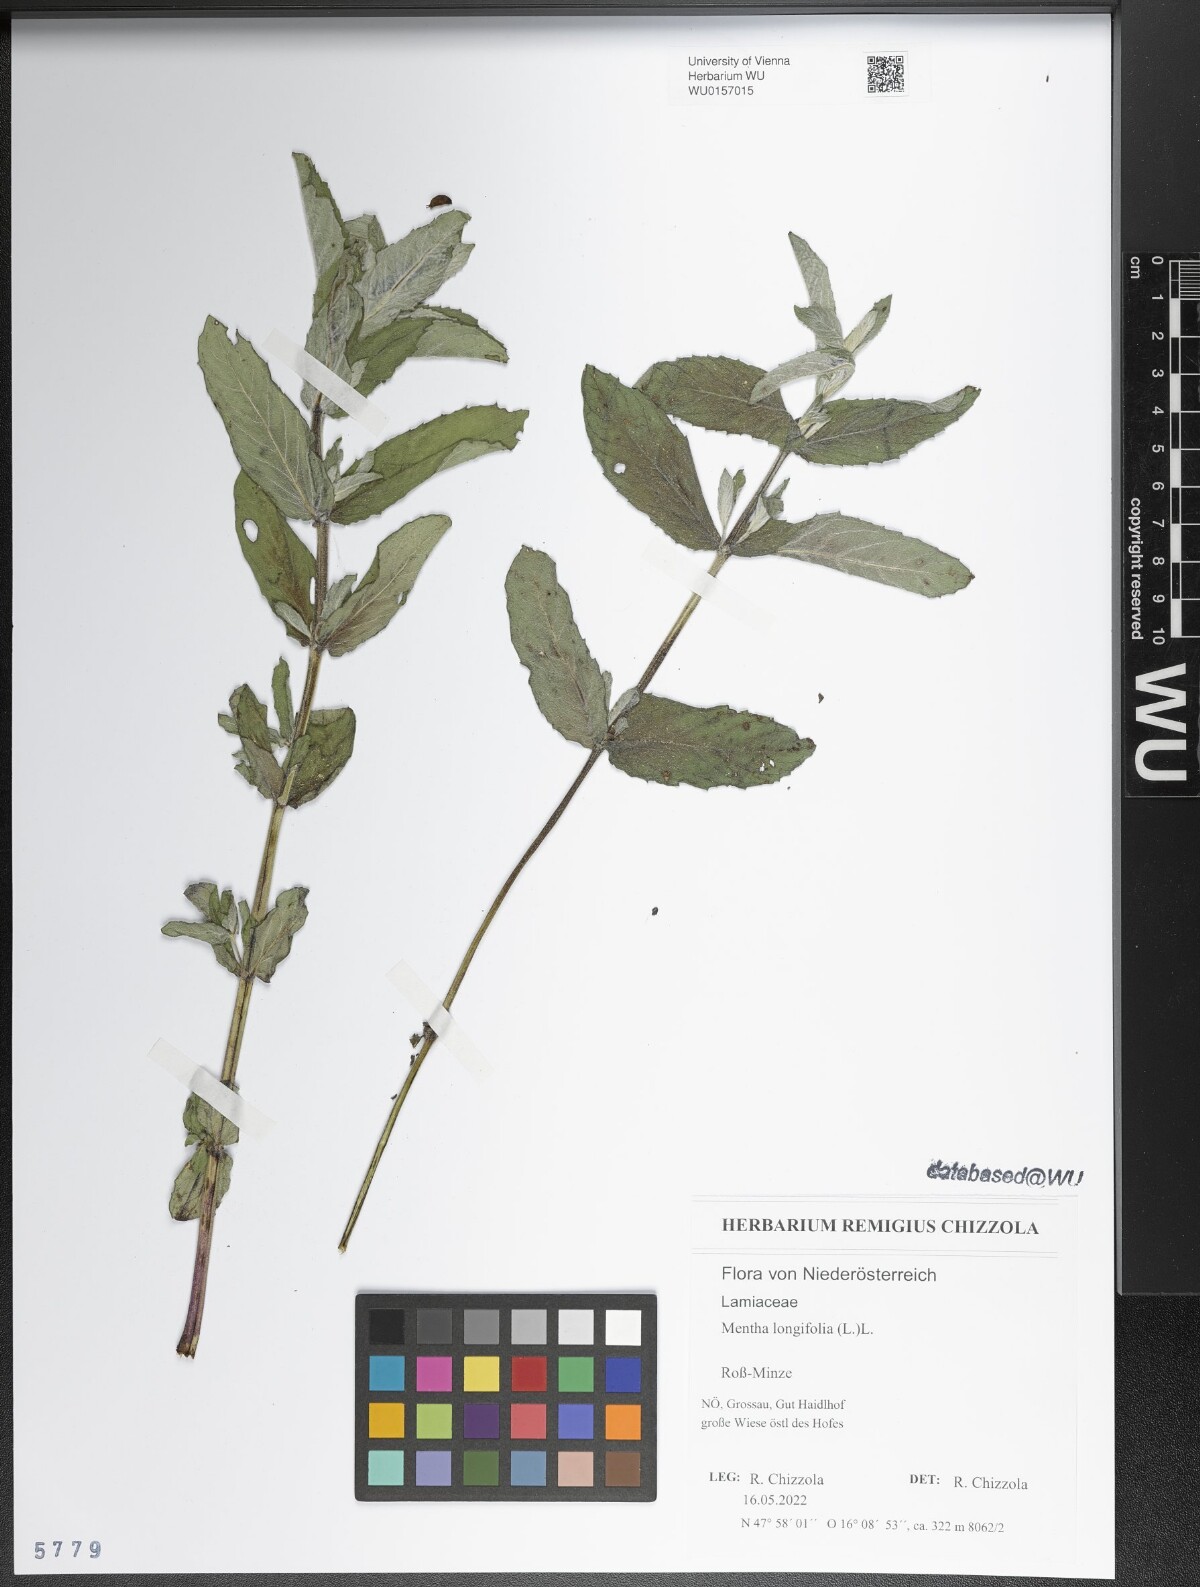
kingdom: Plantae
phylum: Tracheophyta
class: Magnoliopsida
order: Lamiales
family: Lamiaceae
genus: Mentha
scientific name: Mentha longifolia
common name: Horse mint
